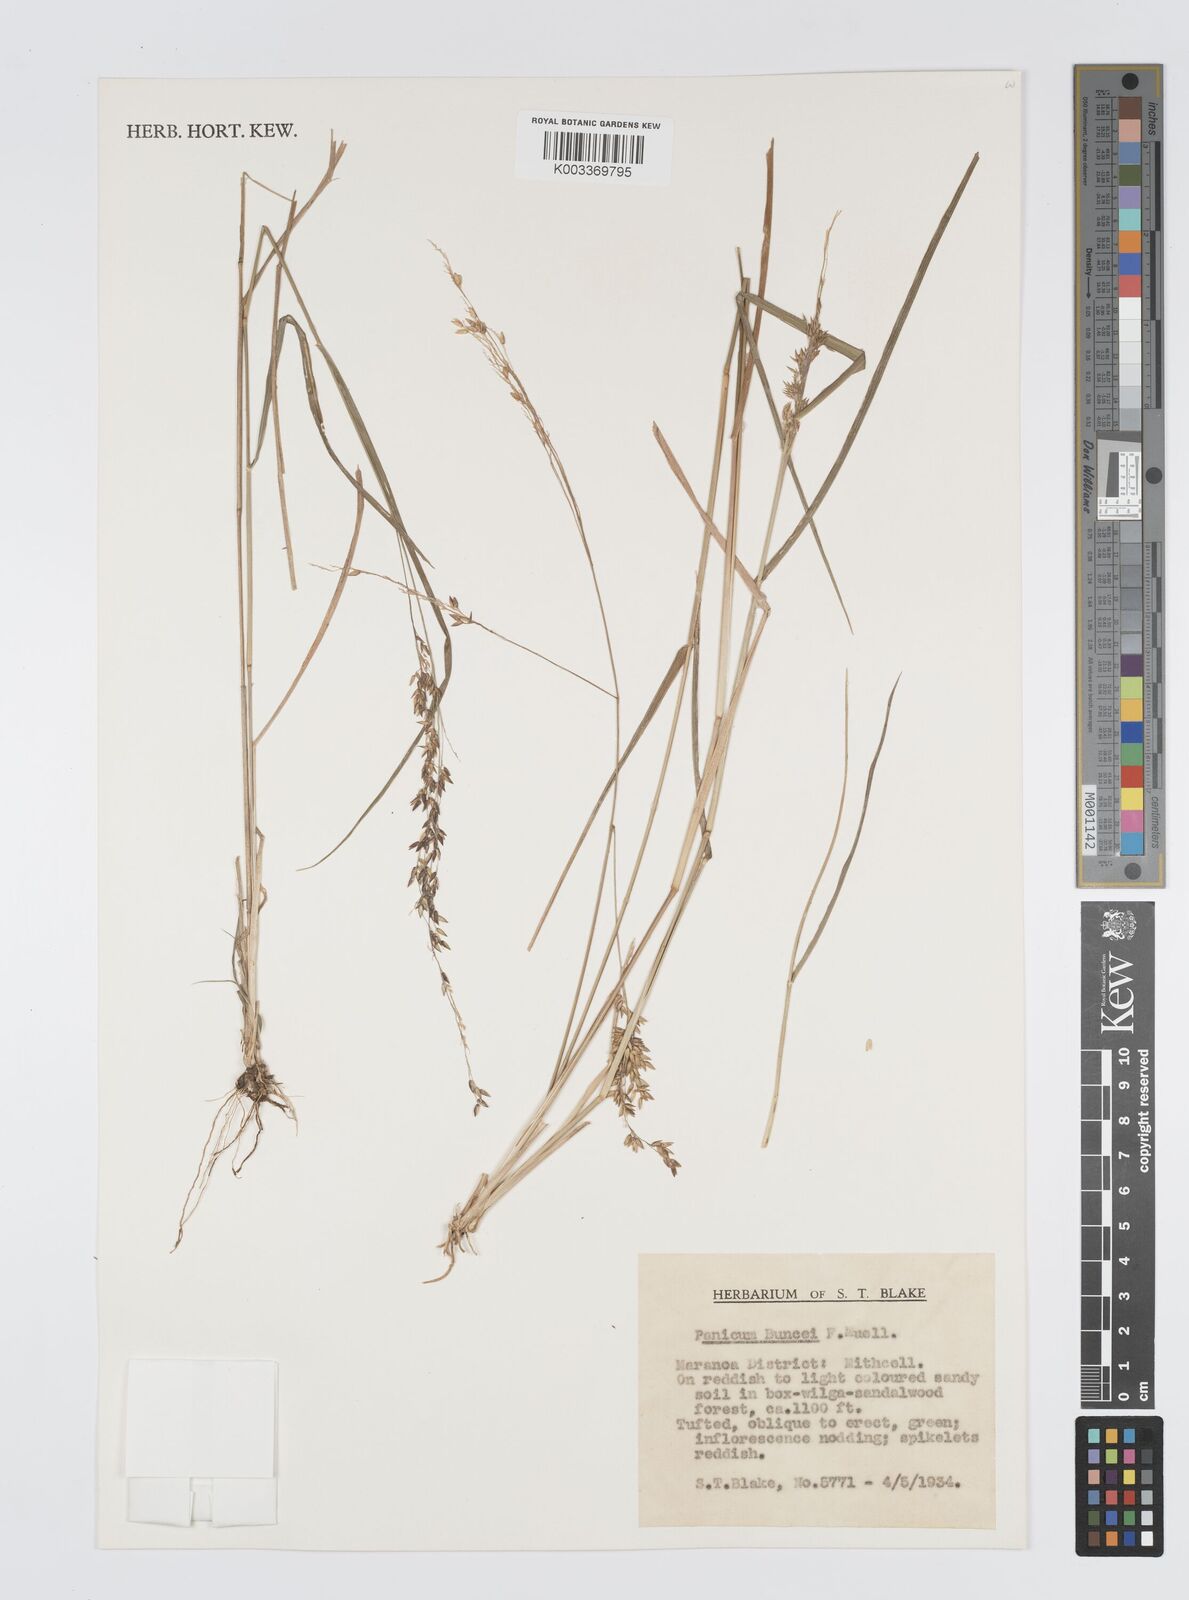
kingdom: Plantae
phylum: Tracheophyta
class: Liliopsida
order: Poales
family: Poaceae
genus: Panicum
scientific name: Panicum buncei
